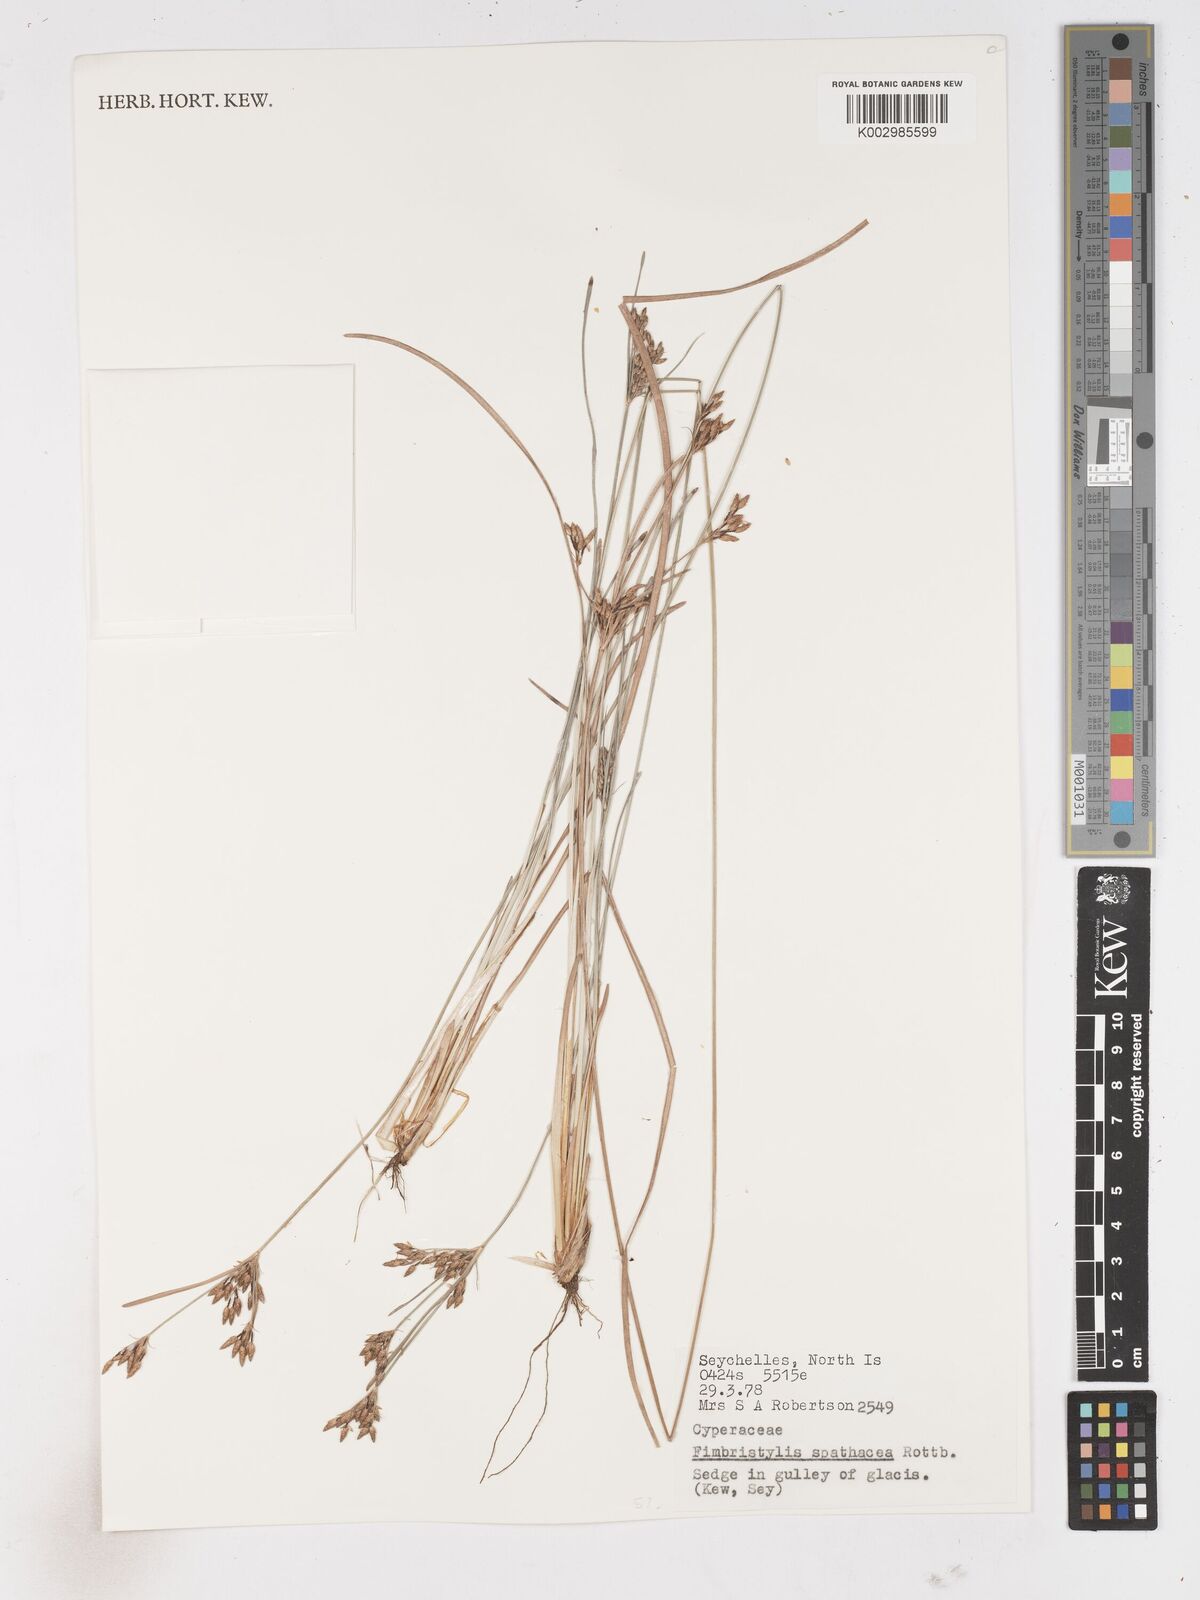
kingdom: Plantae
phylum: Tracheophyta
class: Liliopsida
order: Poales
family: Cyperaceae
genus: Fimbristylis
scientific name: Fimbristylis cymosa
